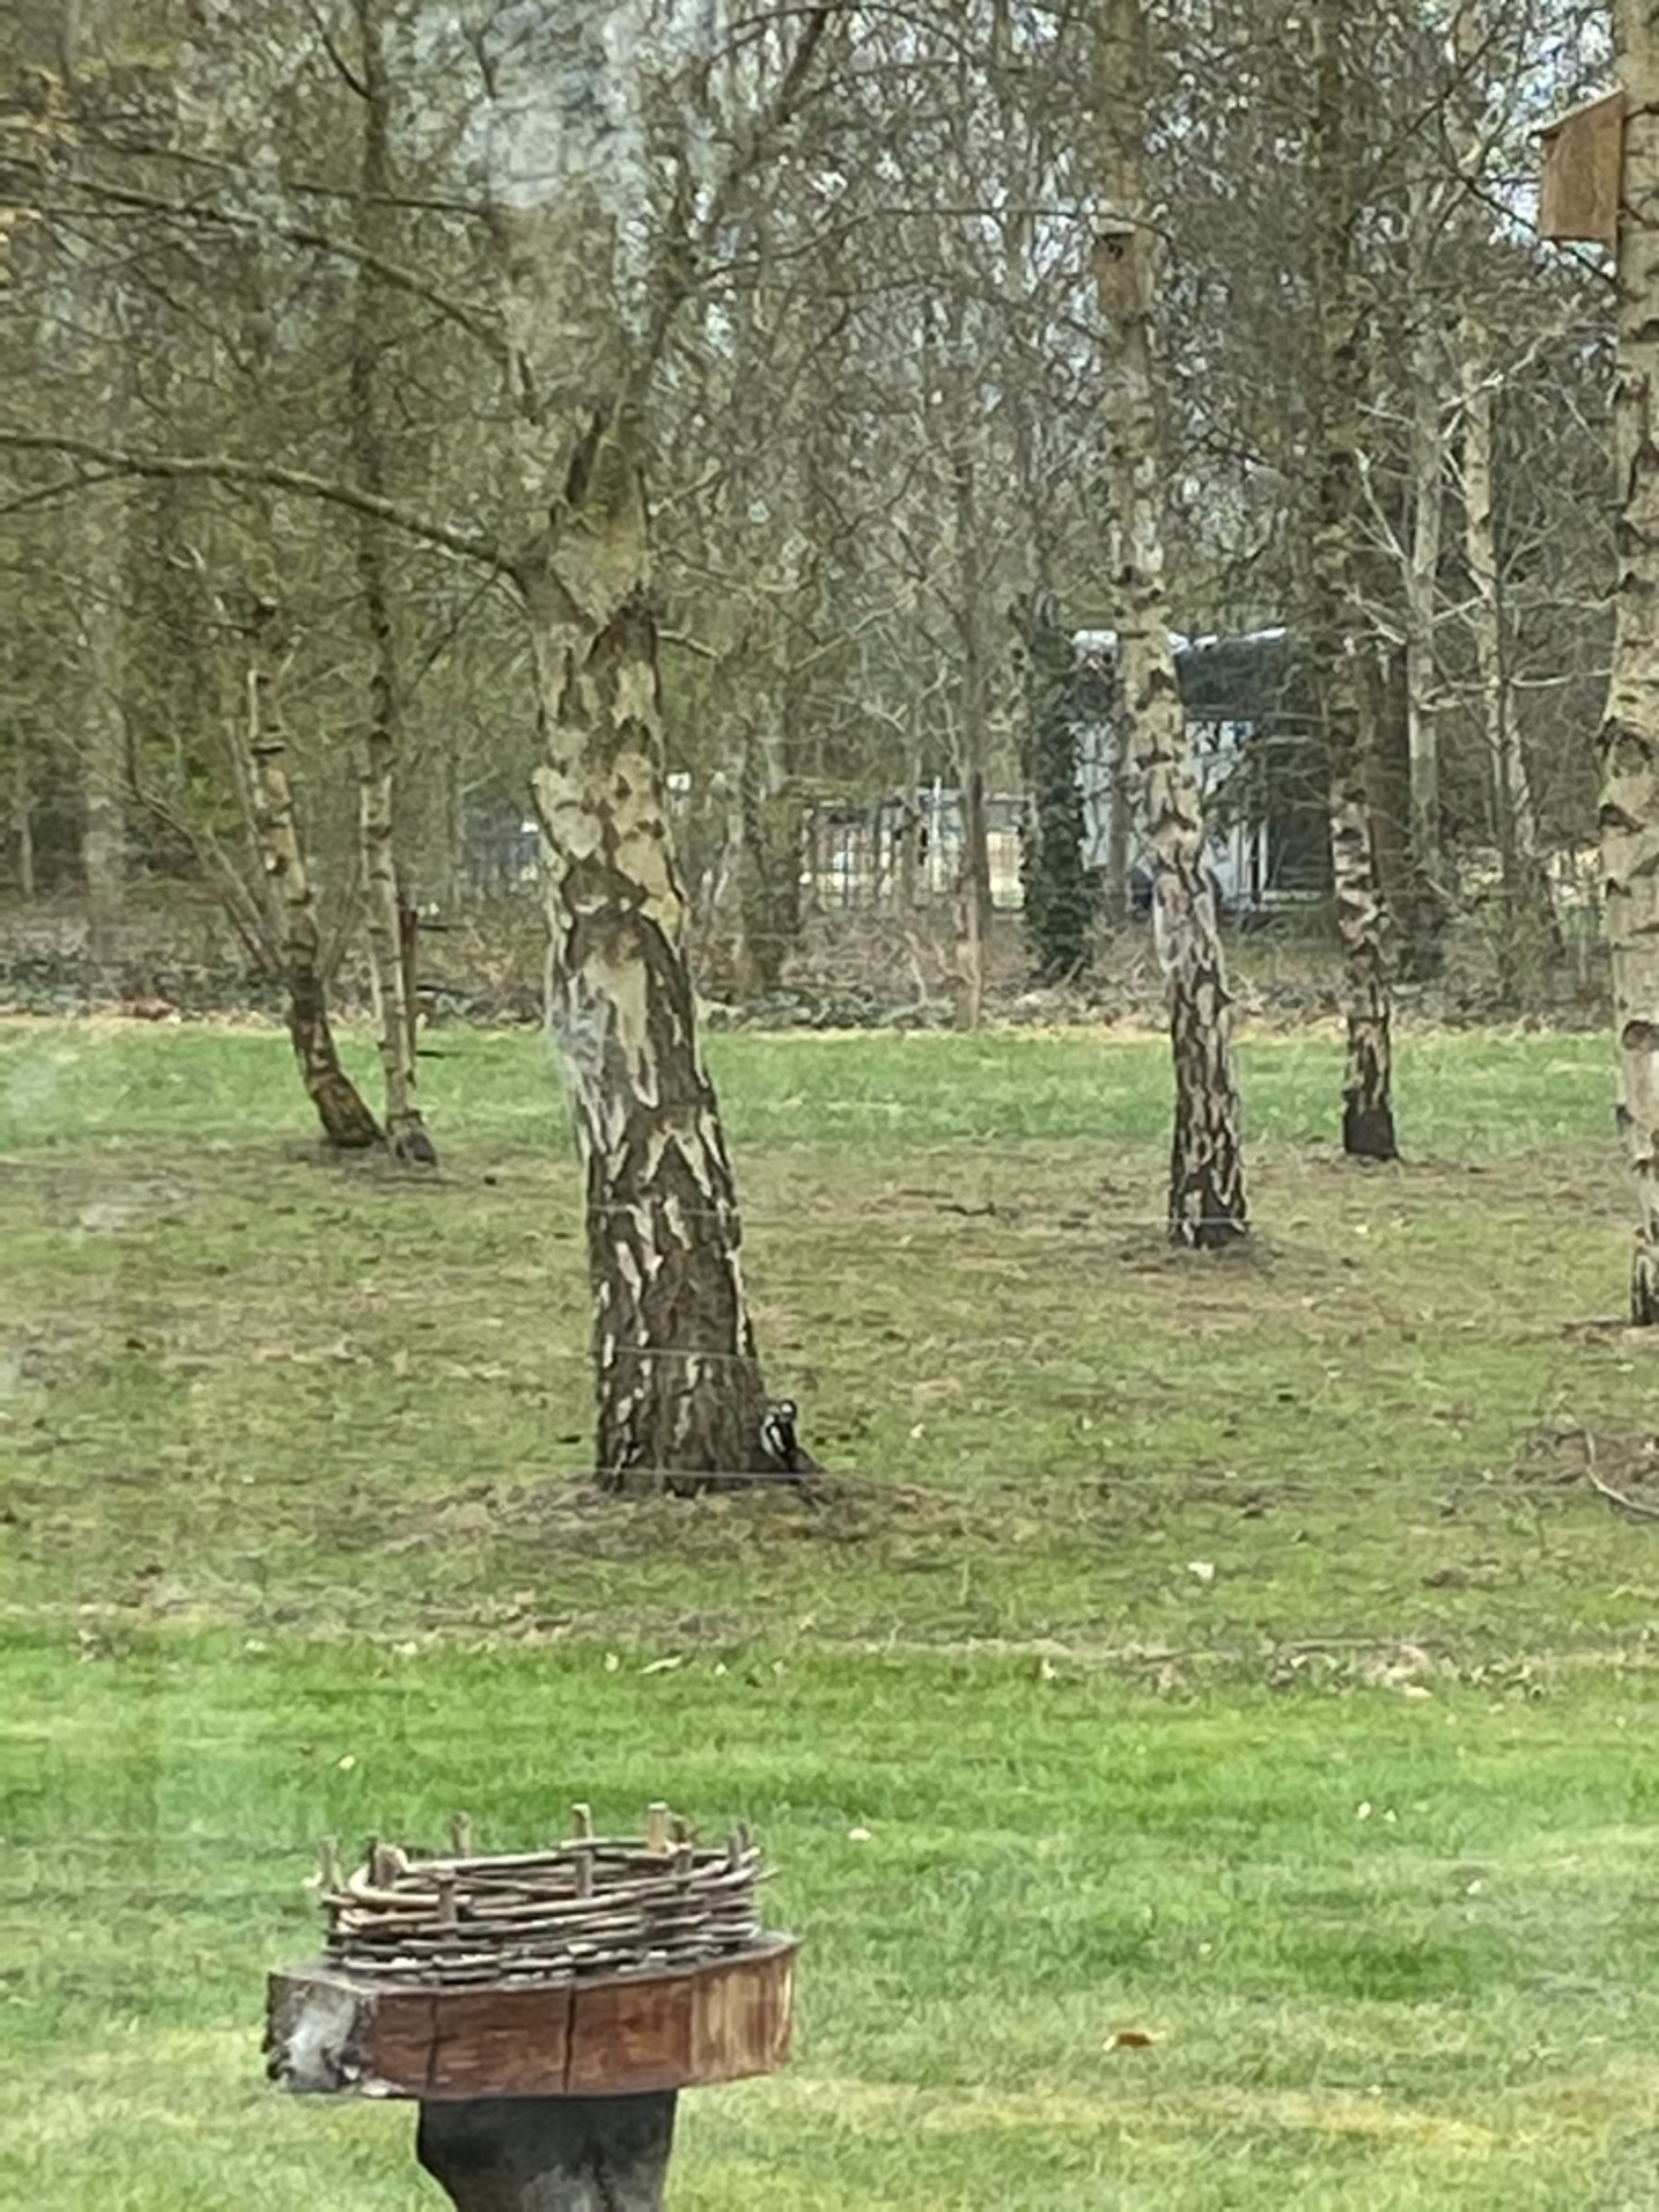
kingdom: Animalia
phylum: Chordata
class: Aves
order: Piciformes
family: Picidae
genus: Dendrocopos
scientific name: Dendrocopos major
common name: Stor flagspætte
